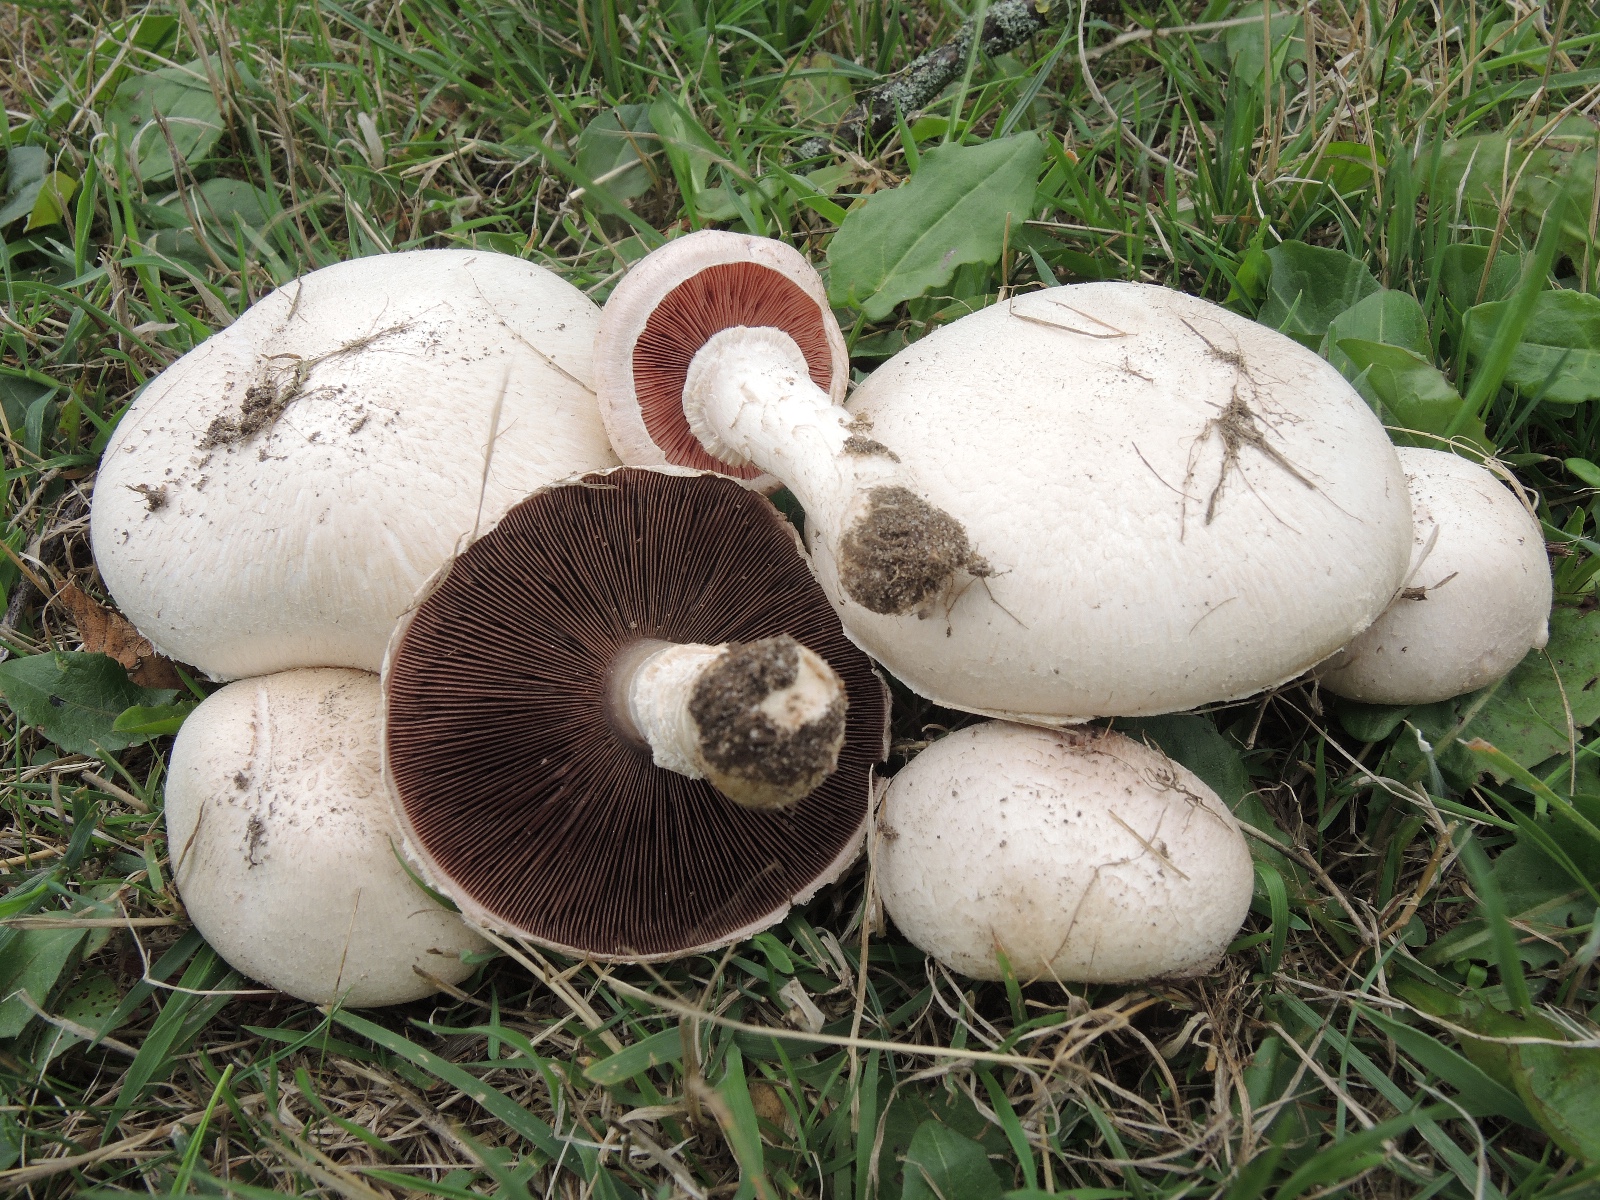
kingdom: Fungi
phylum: Basidiomycota
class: Agaricomycetes
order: Agaricales
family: Agaricaceae
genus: Agaricus
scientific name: Agaricus campestris
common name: mark-champignon
